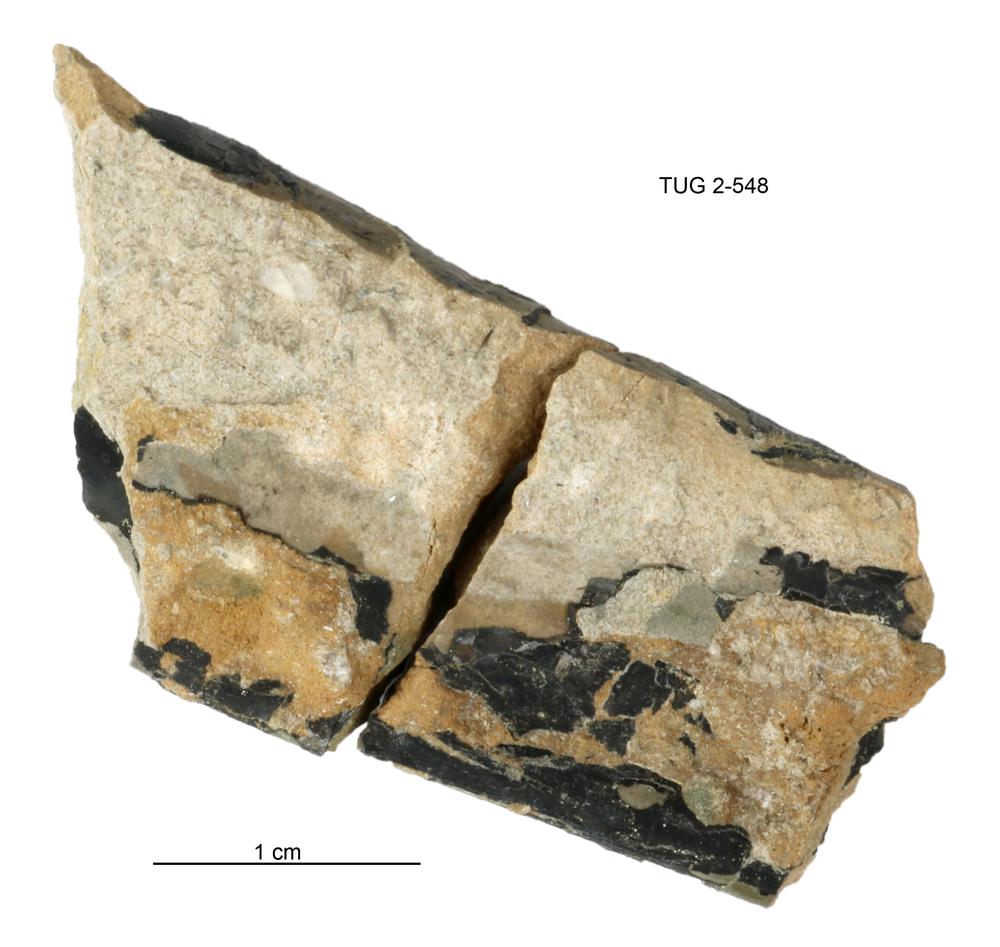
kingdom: Animalia
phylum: Cnidaria
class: Scyphozoa
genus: Sphenothallus
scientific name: Sphenothallus
